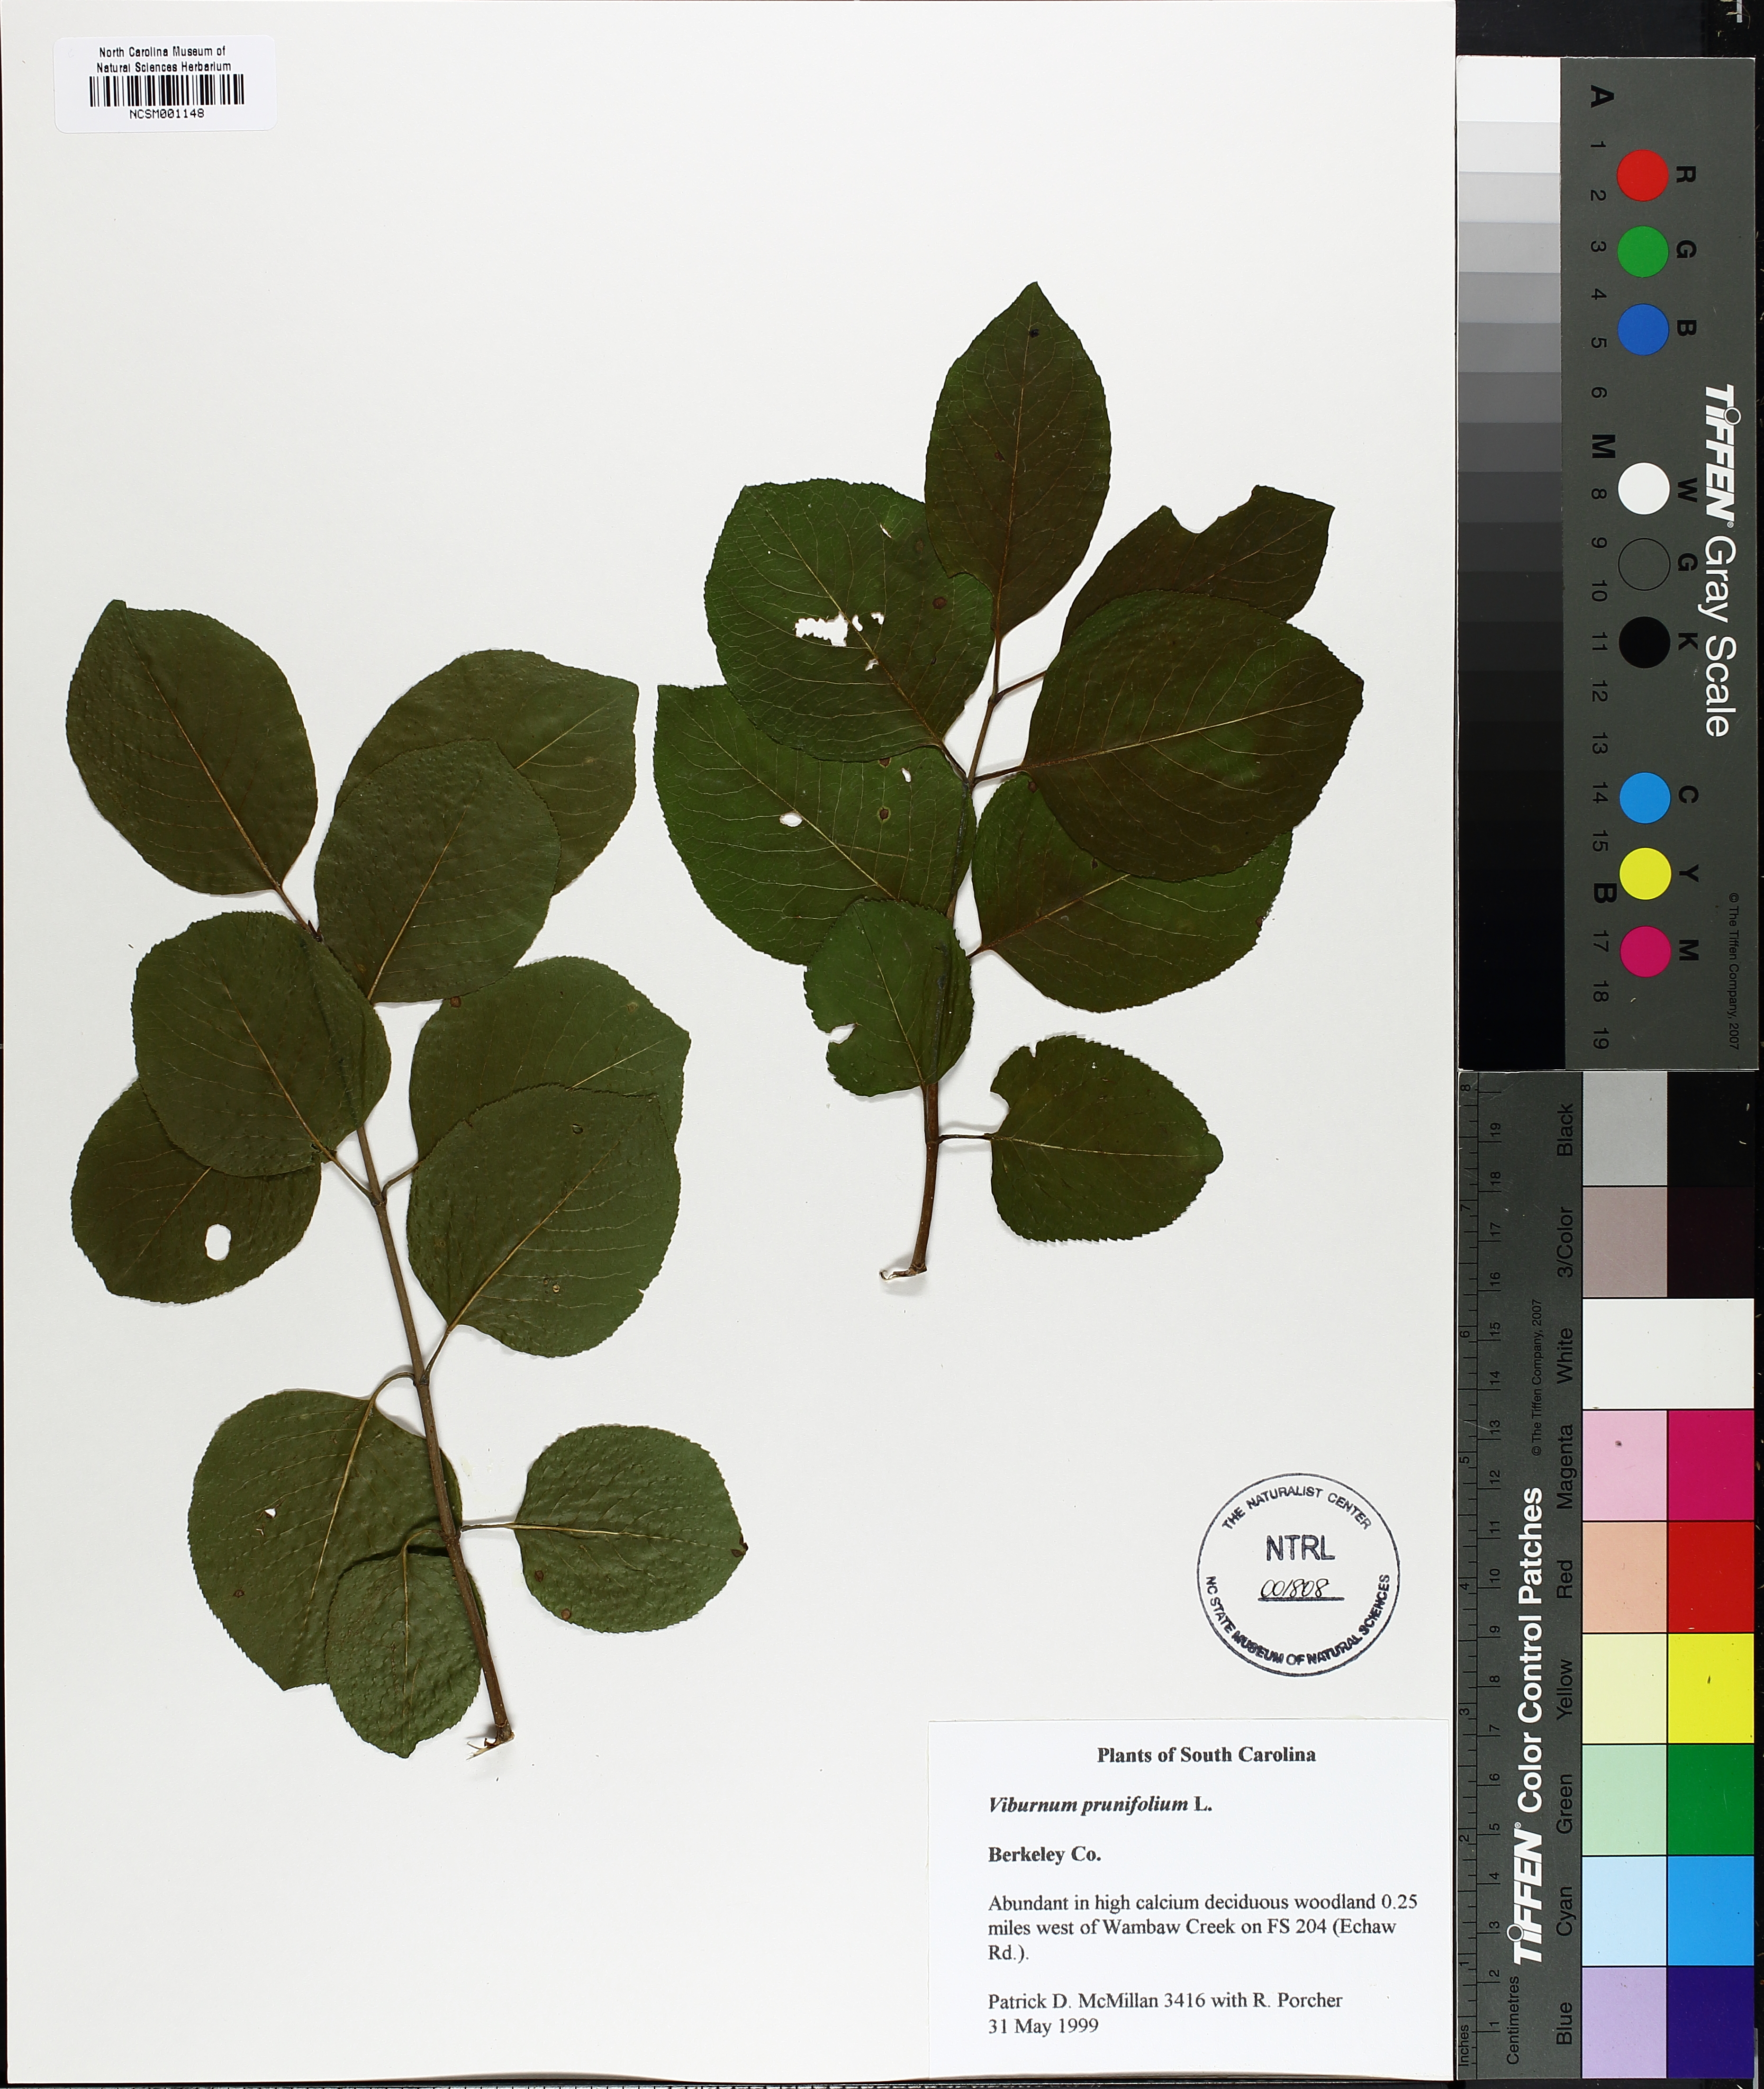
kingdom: Plantae
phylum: Tracheophyta
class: Magnoliopsida
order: Dipsacales
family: Viburnaceae
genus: Viburnum
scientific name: Viburnum prunifolium
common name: Black haw
